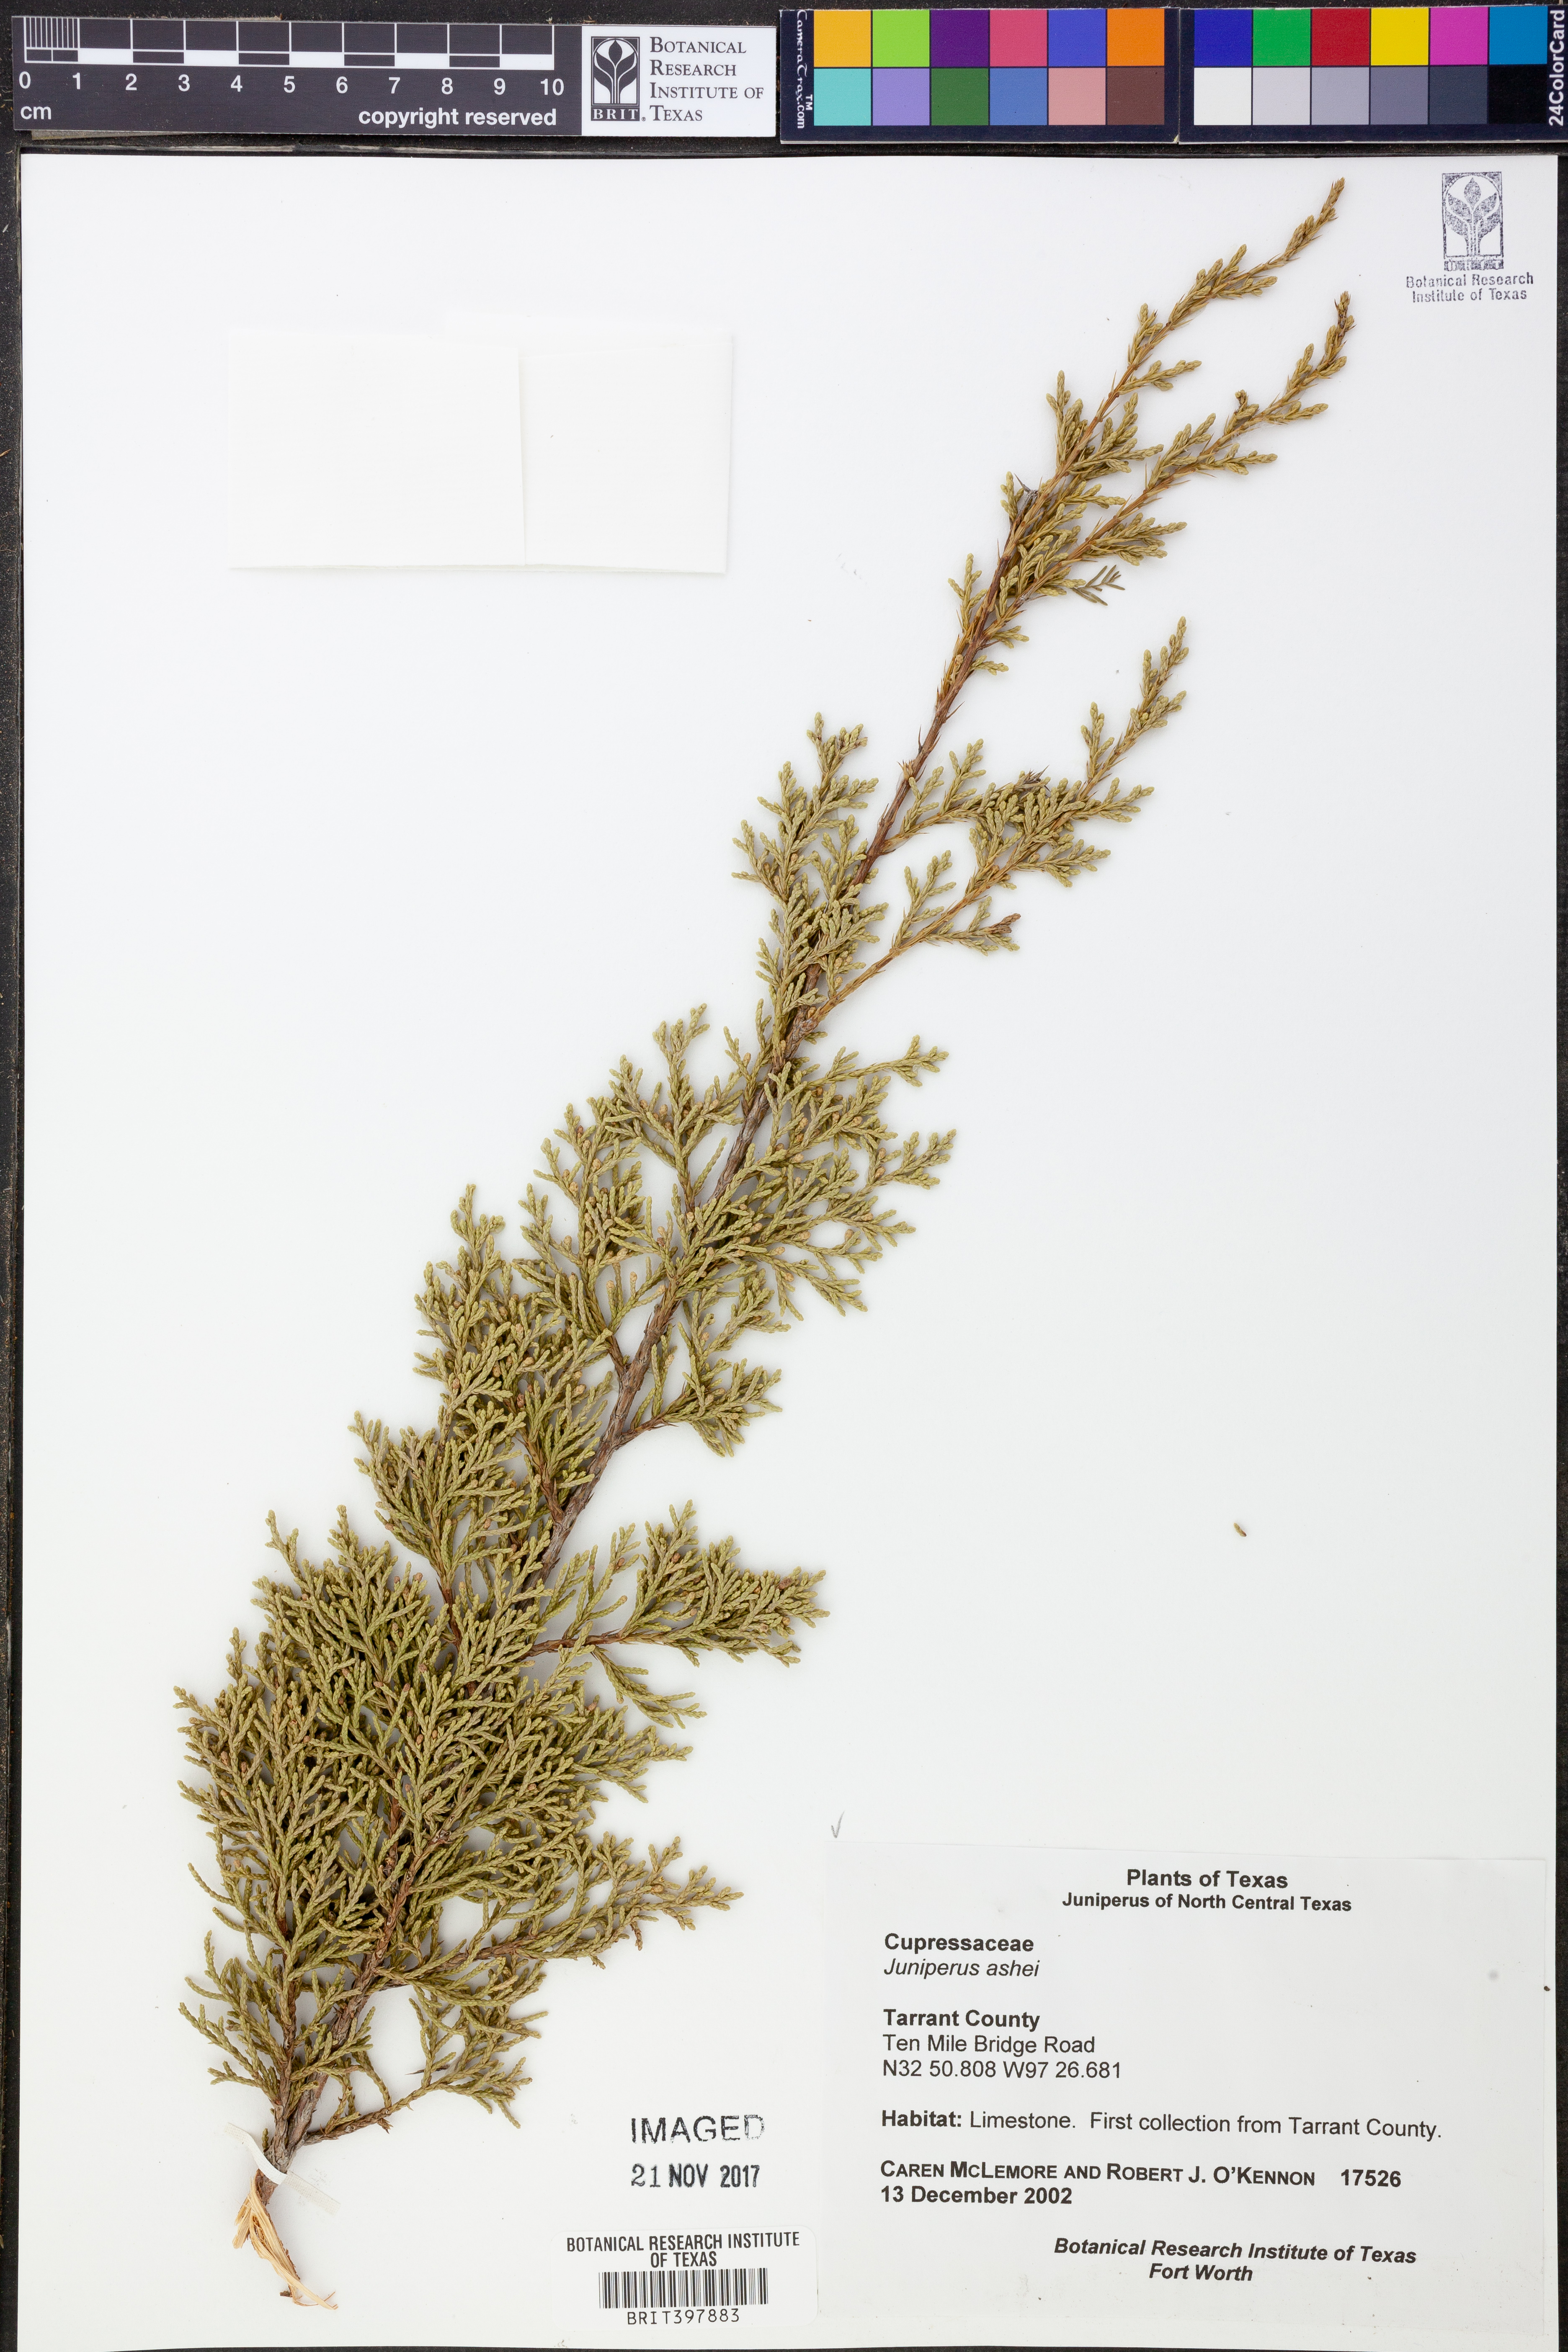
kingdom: Plantae
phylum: Tracheophyta
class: Pinopsida
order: Pinales
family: Cupressaceae
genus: Juniperus
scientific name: Juniperus ashei
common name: Mexican juniper
